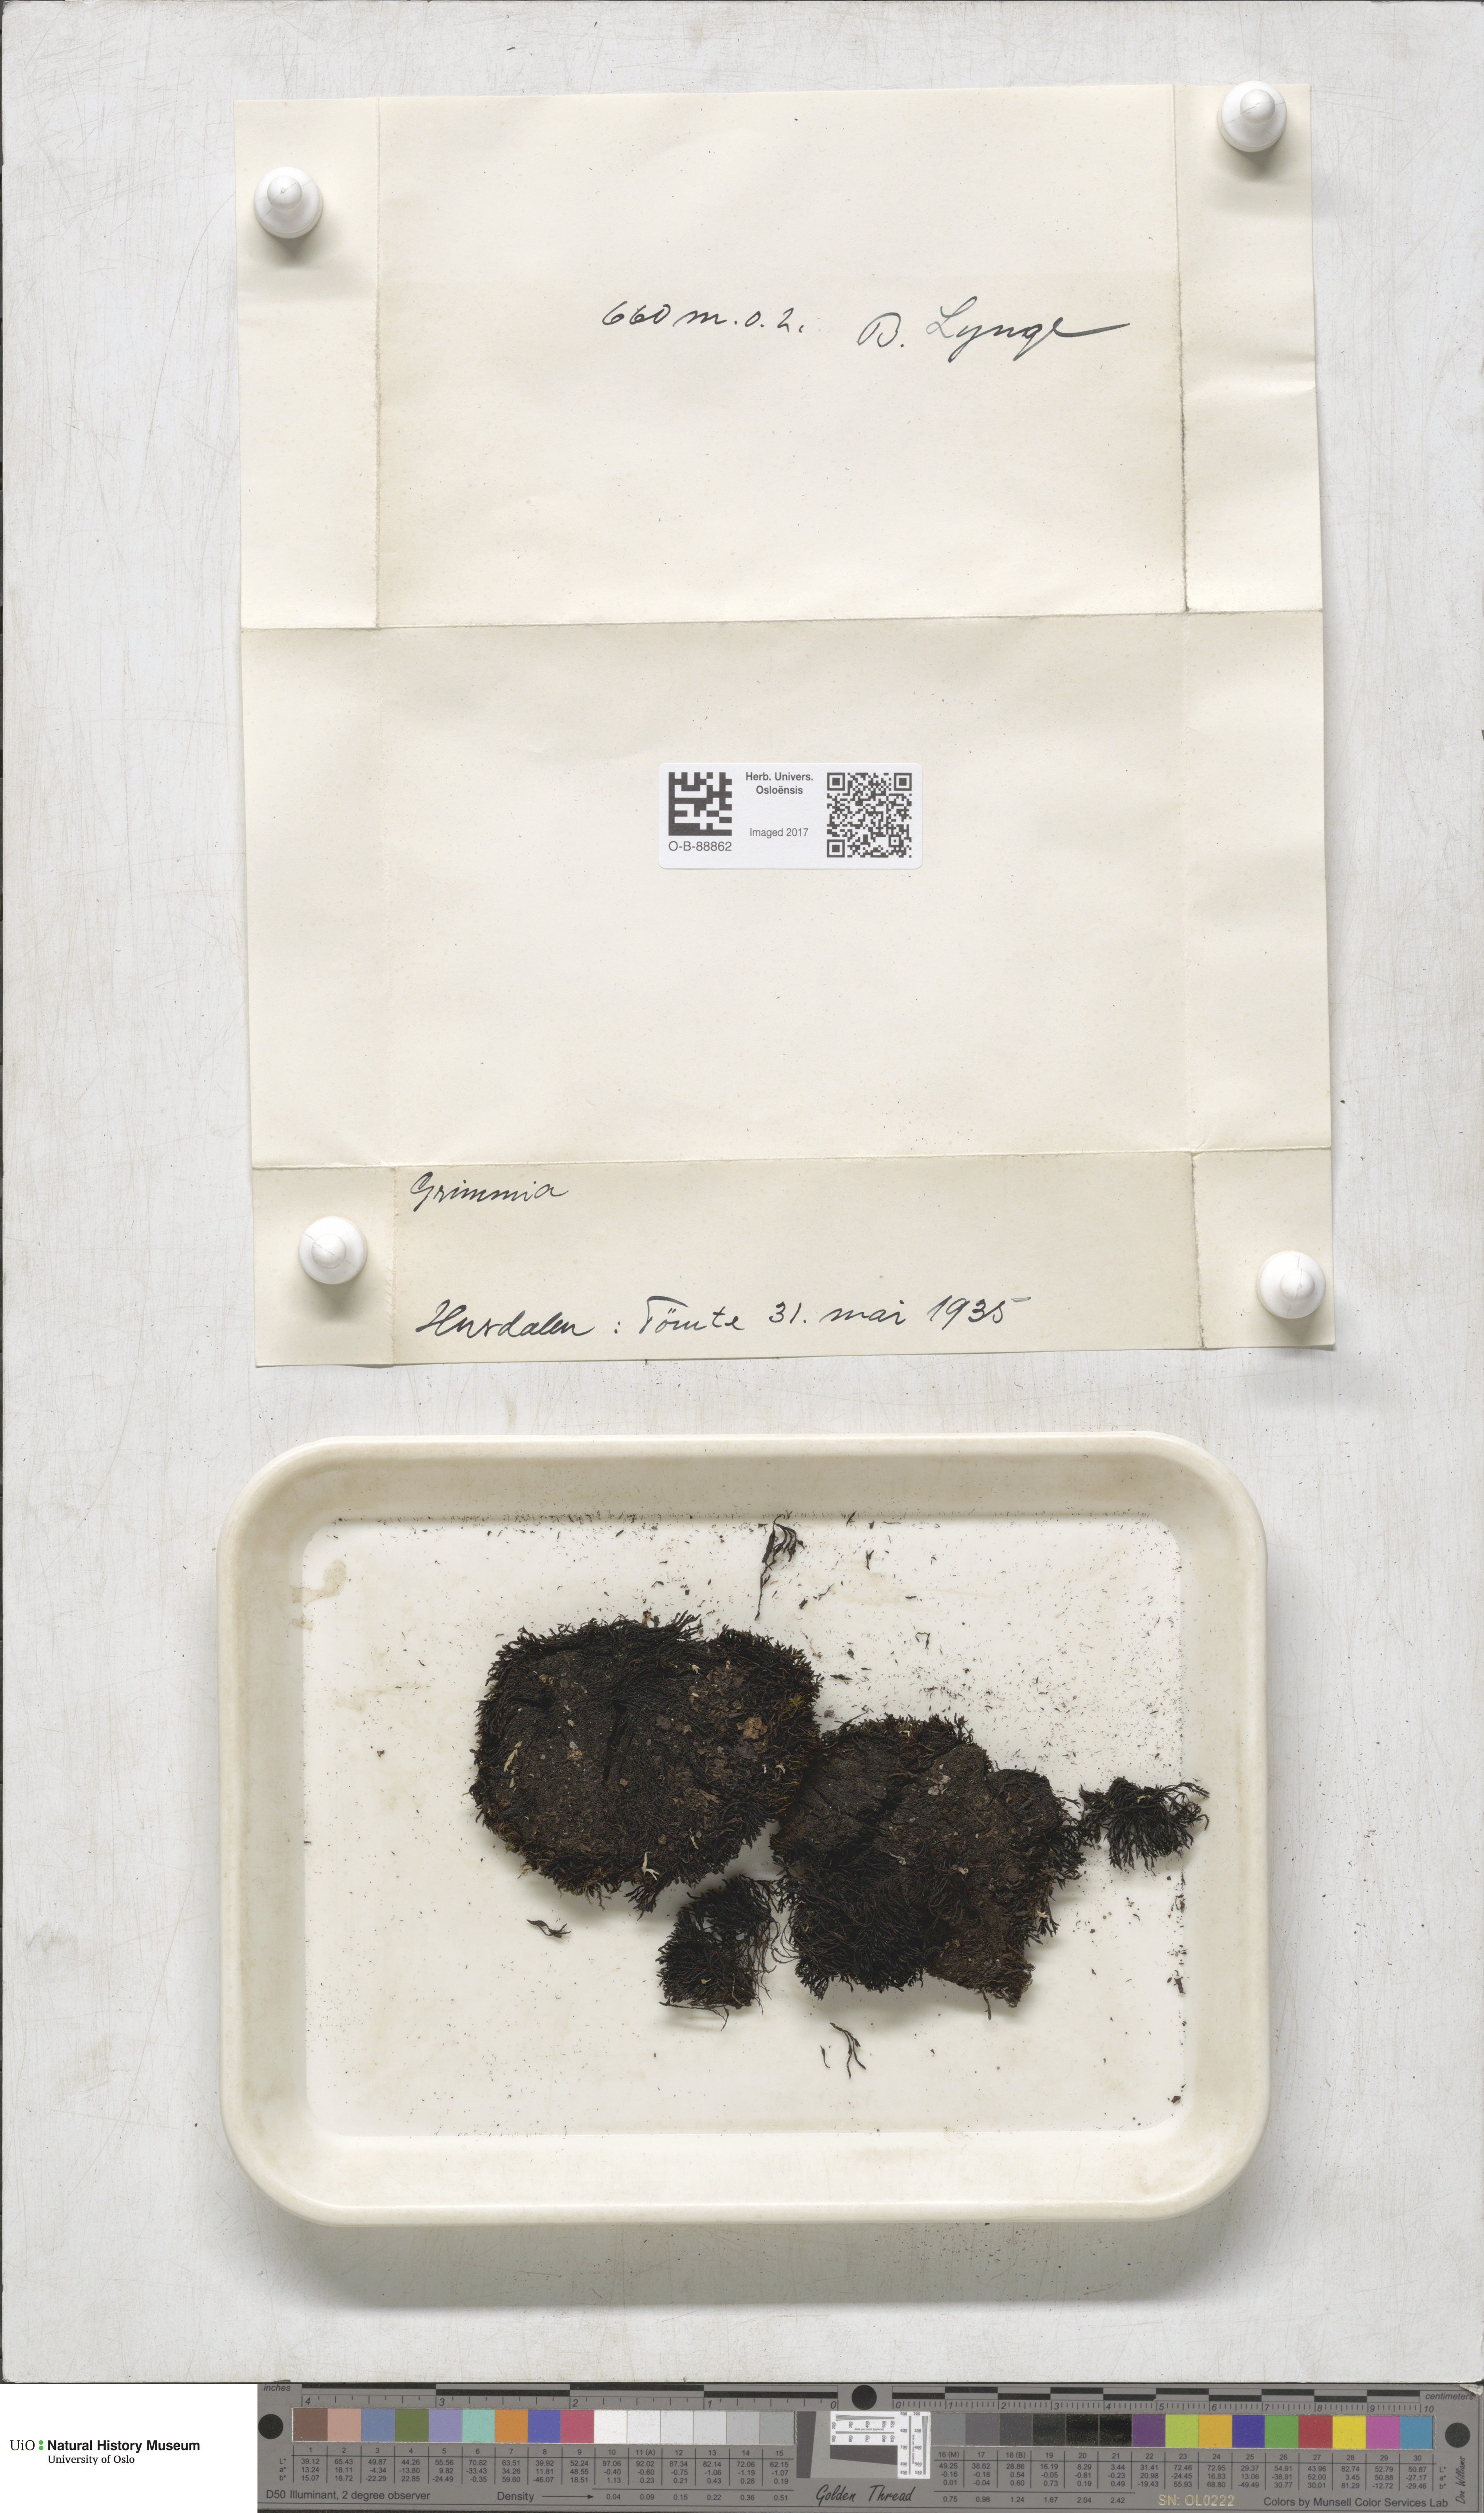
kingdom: Plantae
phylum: Bryophyta
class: Bryopsida
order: Grimmiales
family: Grimmiaceae
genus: Grimmia
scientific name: Grimmia
